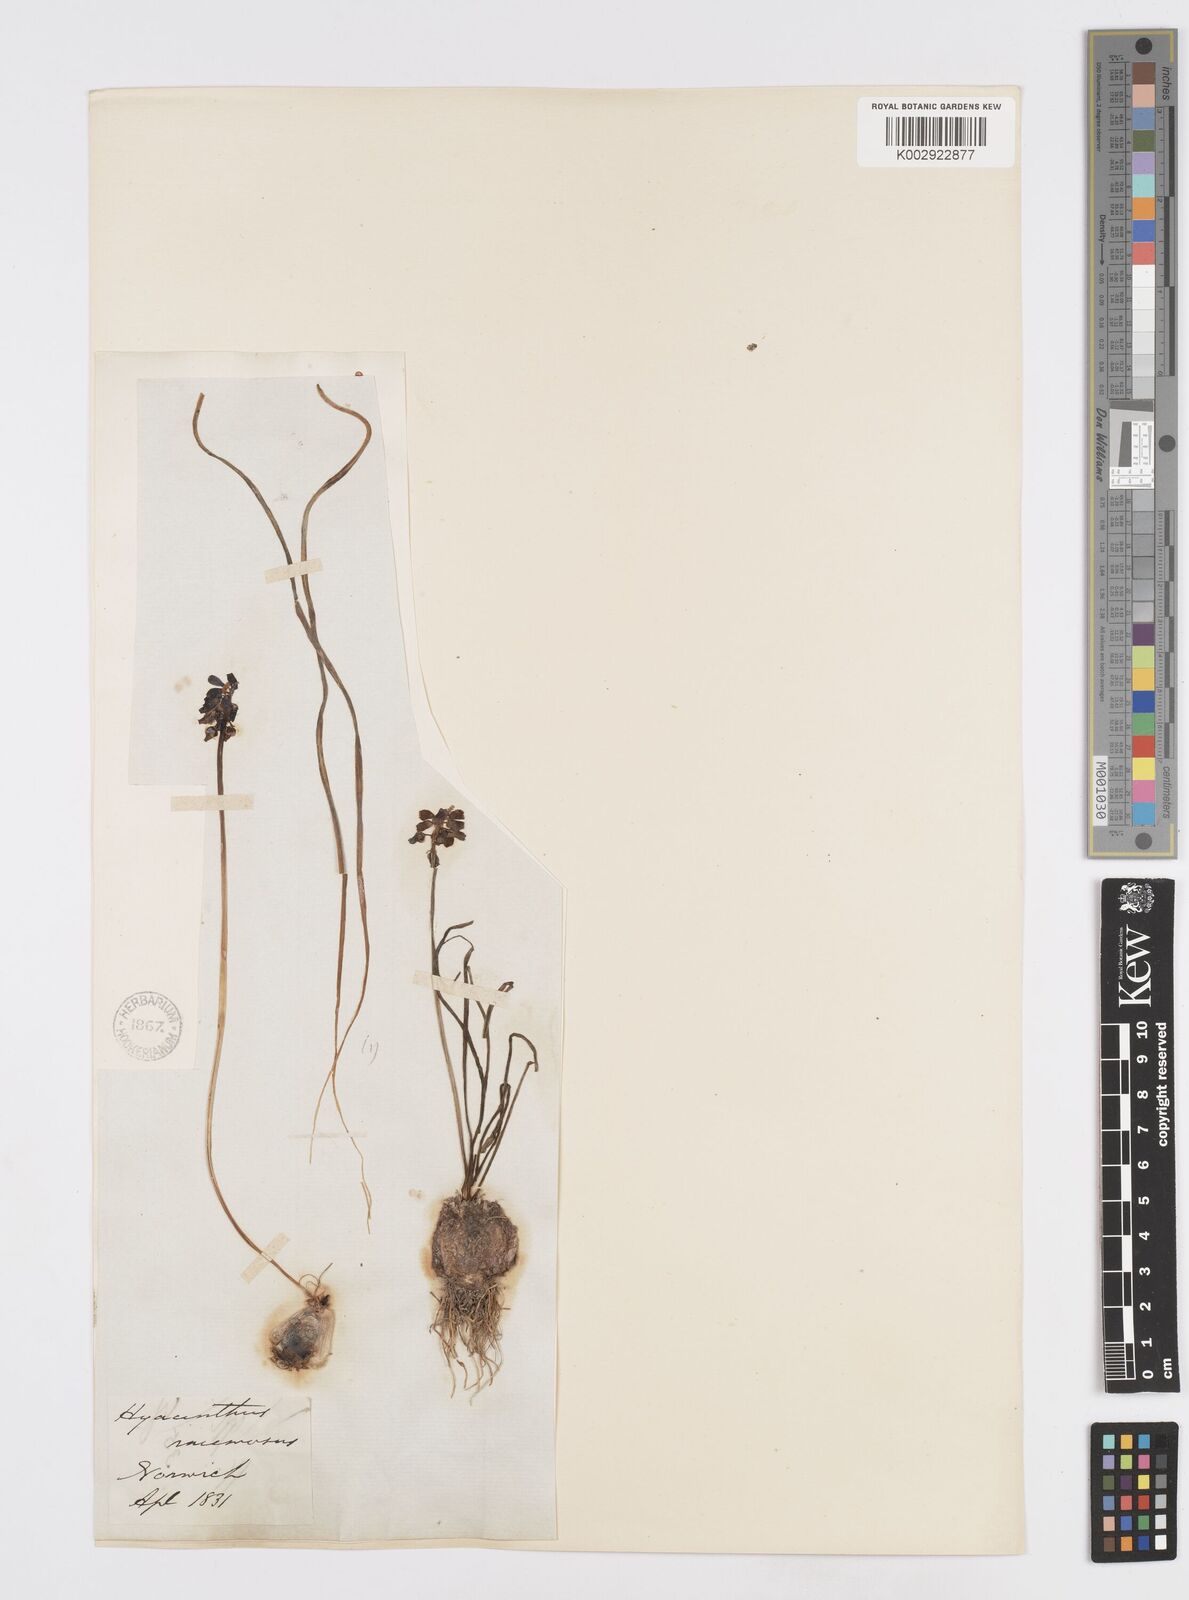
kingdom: Plantae
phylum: Tracheophyta
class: Liliopsida
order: Asparagales
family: Asparagaceae
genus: Muscari
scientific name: Muscari neglectum
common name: Grape-hyacinth
